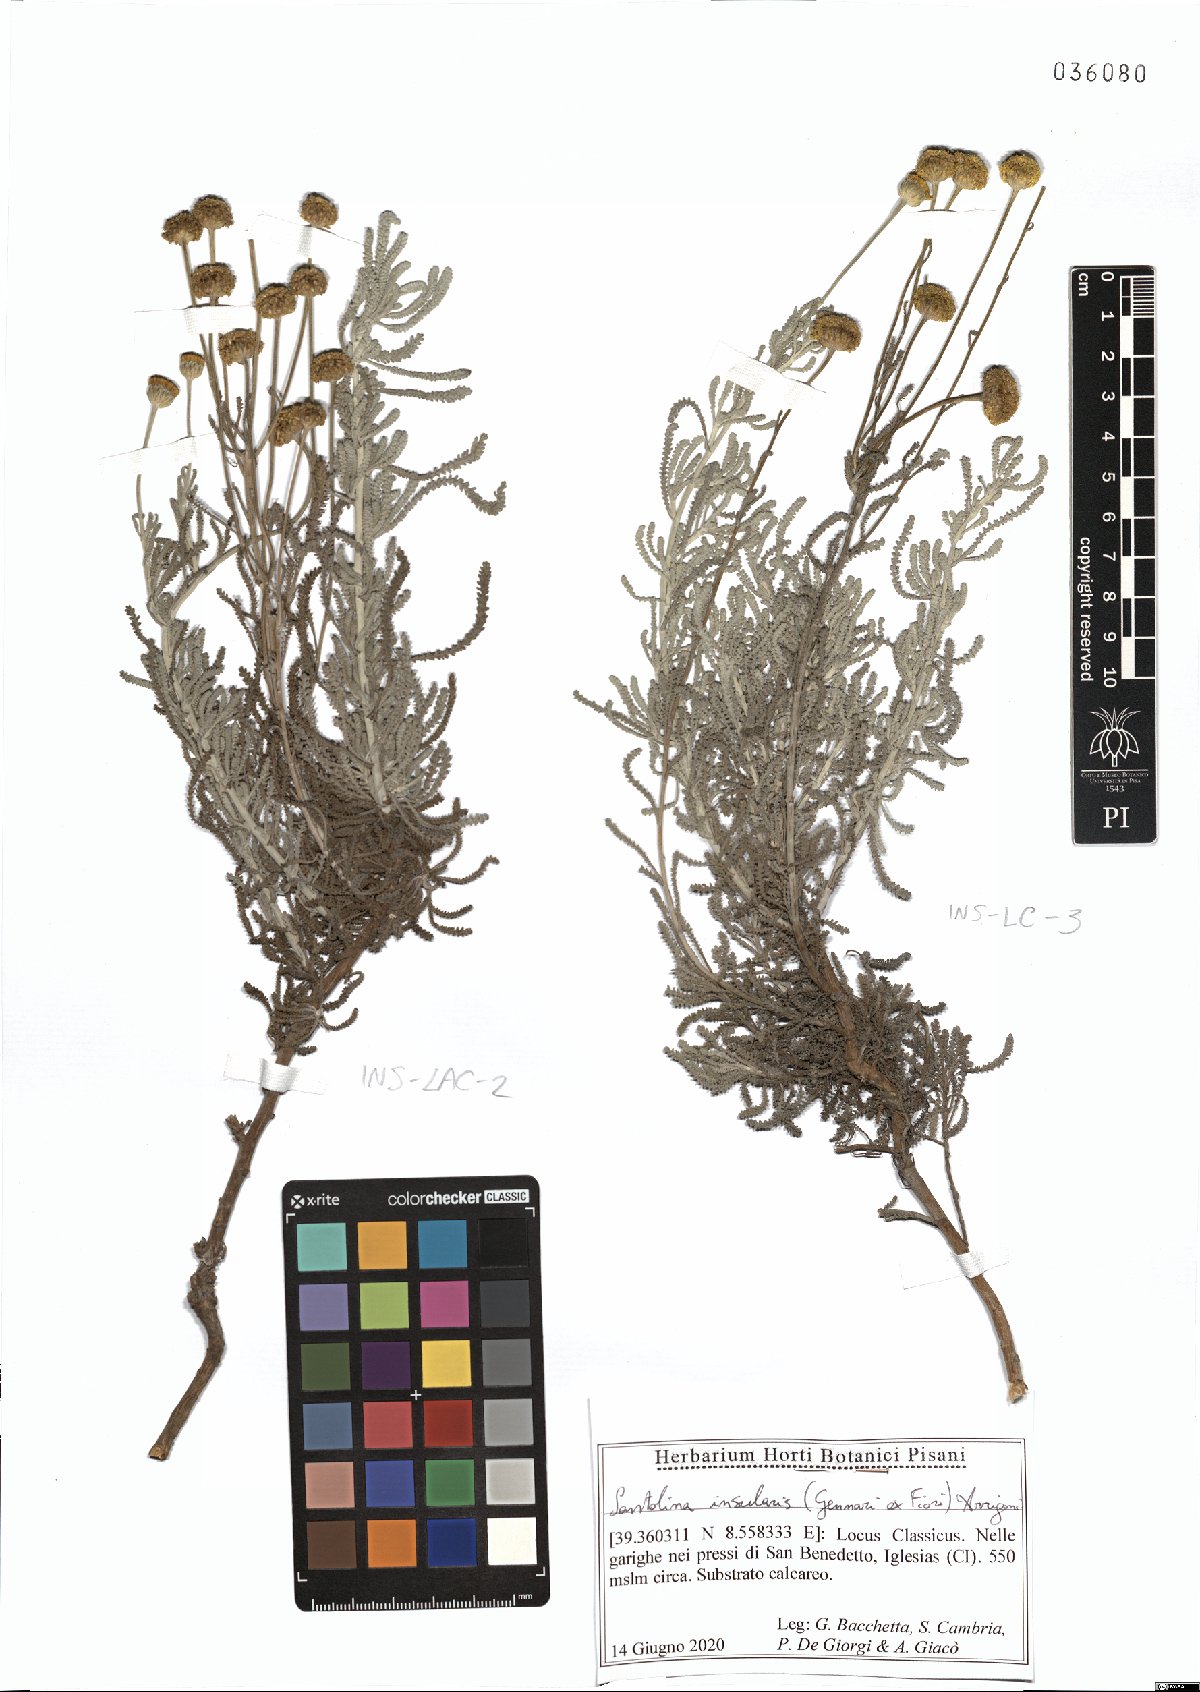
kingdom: Plantae
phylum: Tracheophyta
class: Magnoliopsida
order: Asterales
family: Asteraceae
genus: Santolina
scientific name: Santolina insularis
